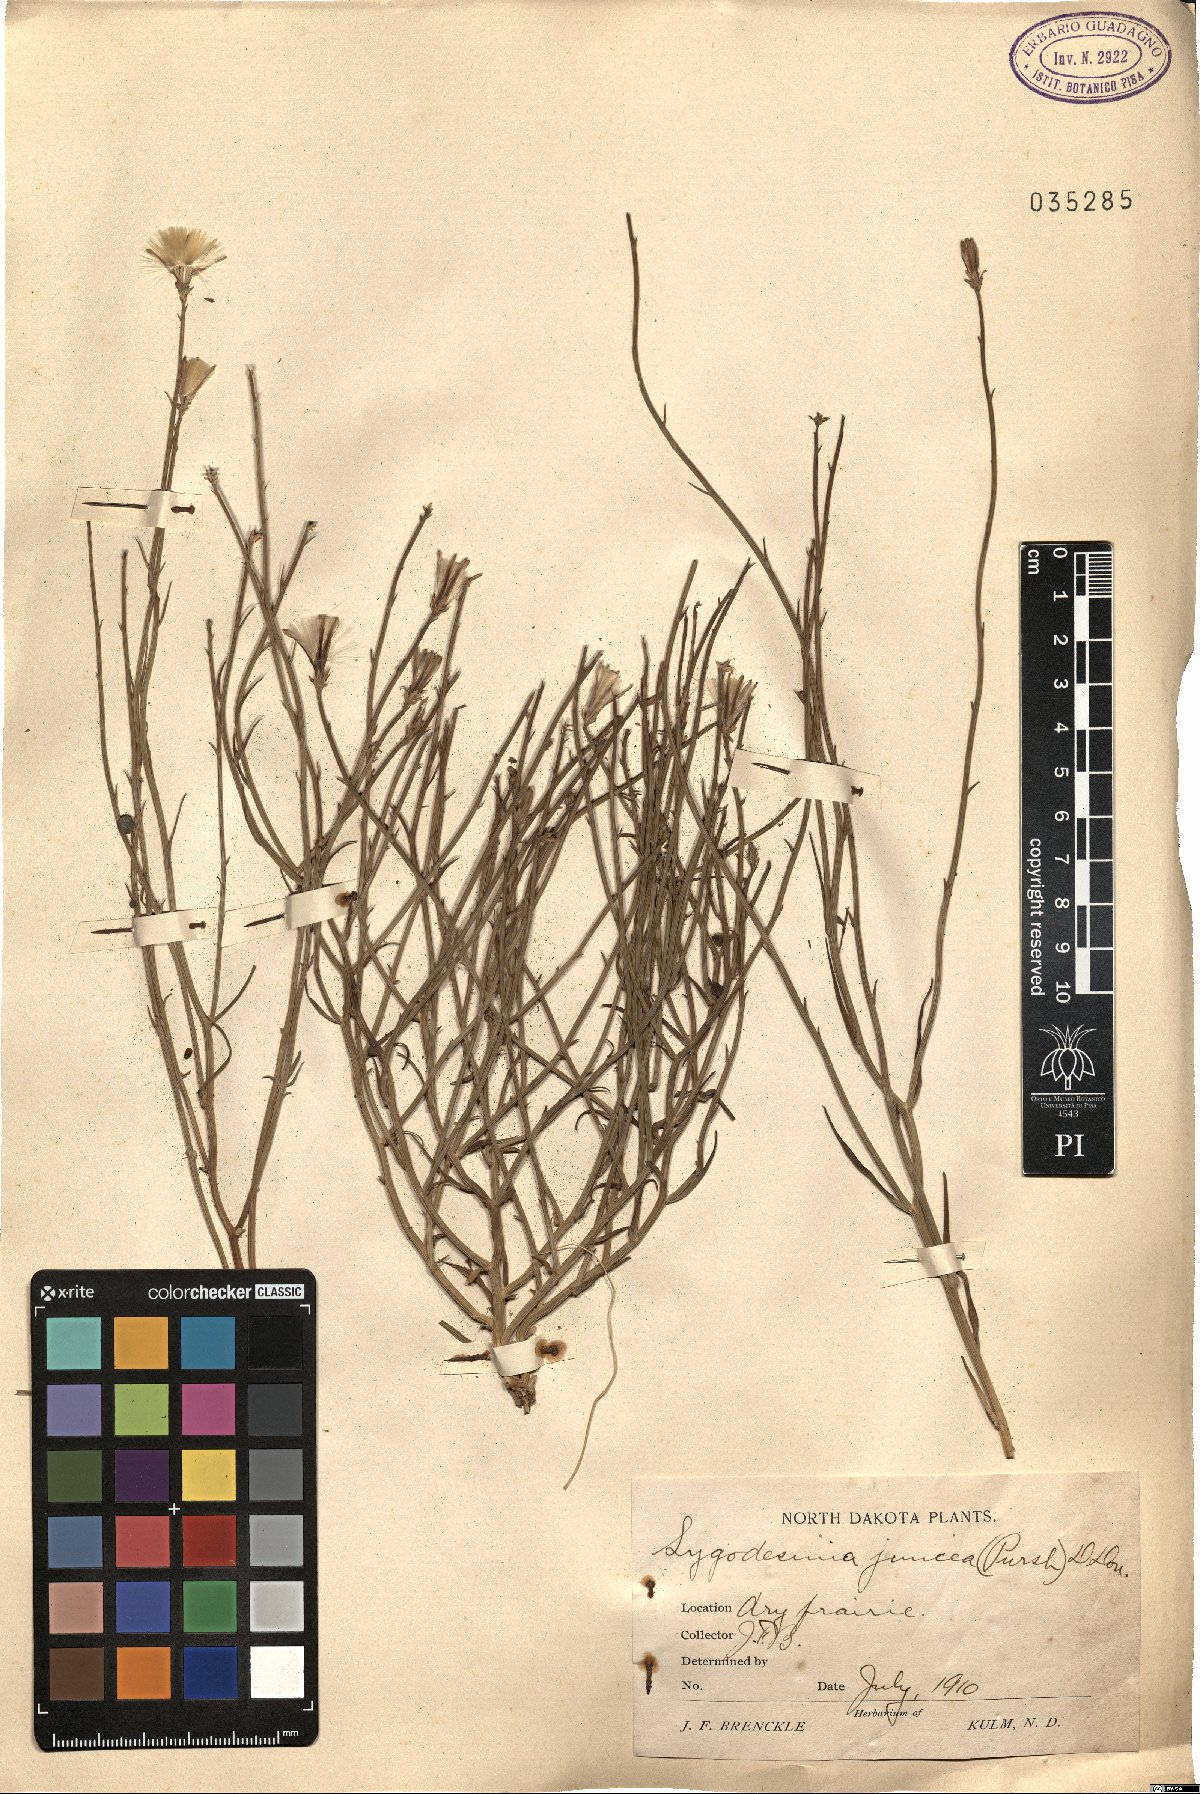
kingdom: Plantae
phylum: Tracheophyta
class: Magnoliopsida
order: Asterales
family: Asteraceae
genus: Lygodesmia
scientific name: Lygodesmia juncea
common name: Common skeletonweed
